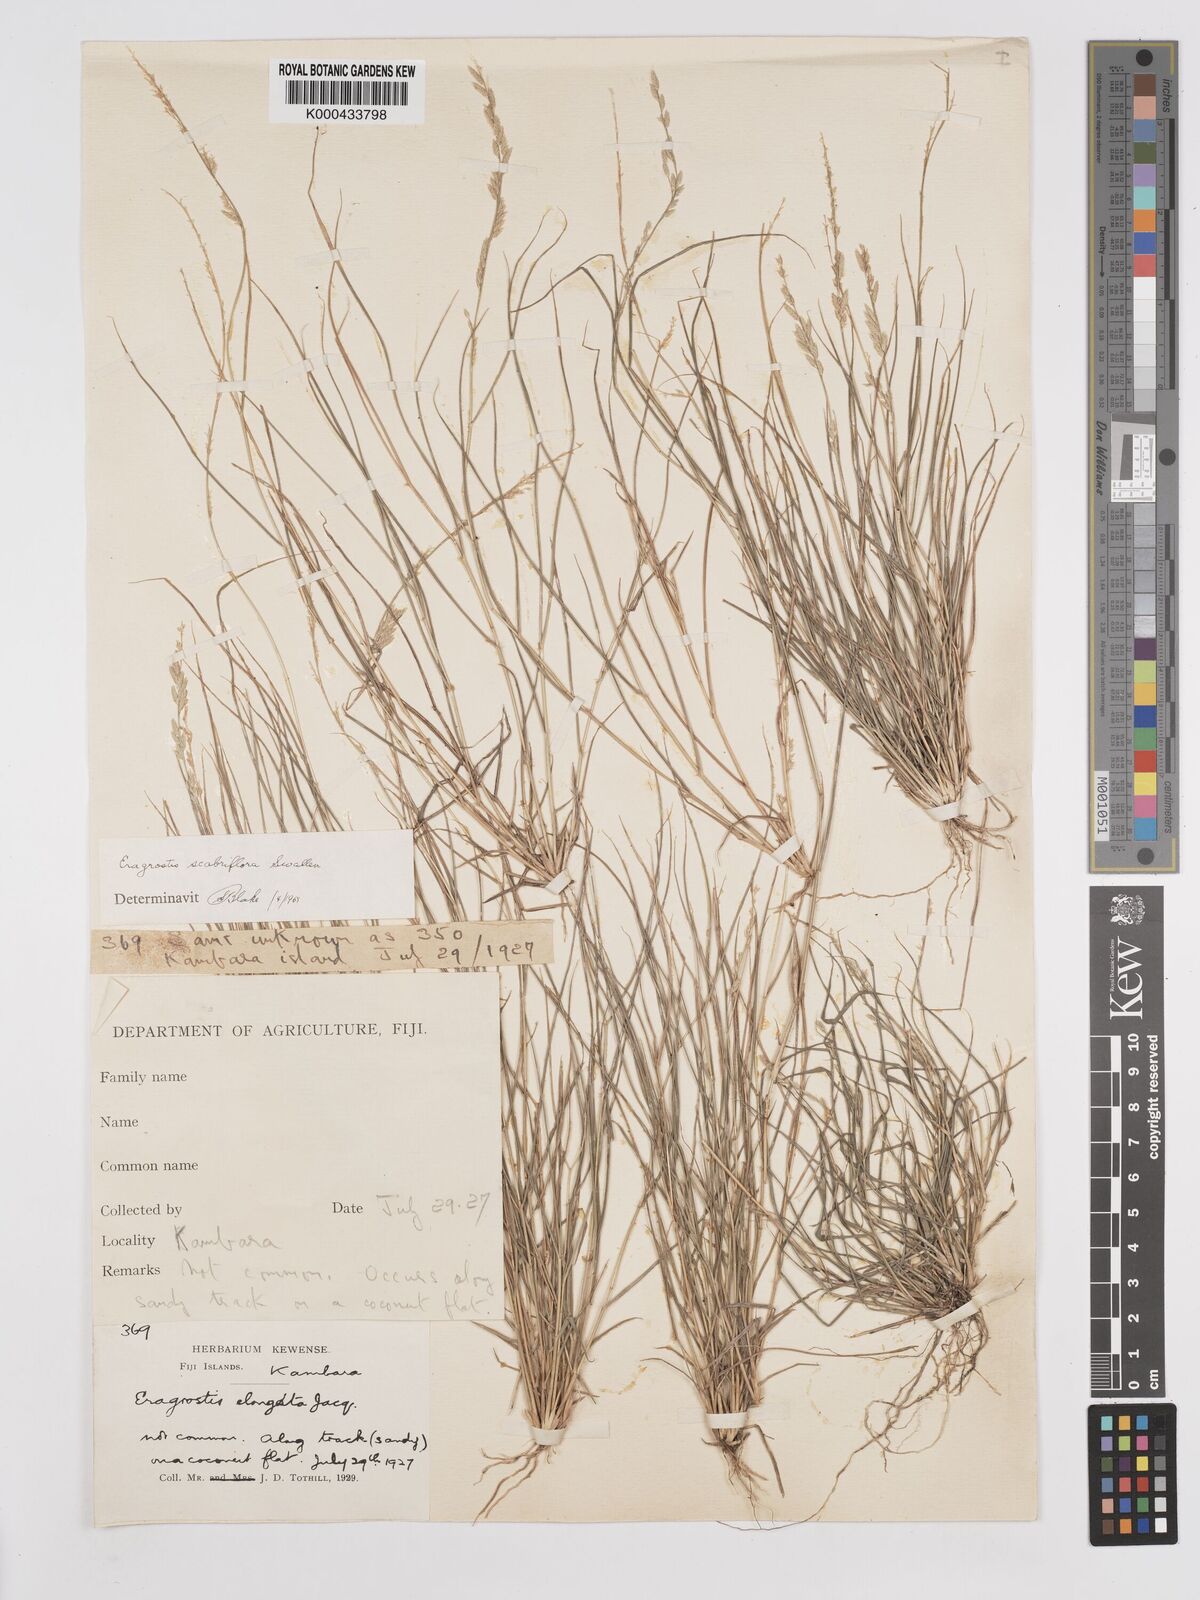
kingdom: Plantae
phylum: Tracheophyta
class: Liliopsida
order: Poales
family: Poaceae
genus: Eragrostis
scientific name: Eragrostis scabriflora
